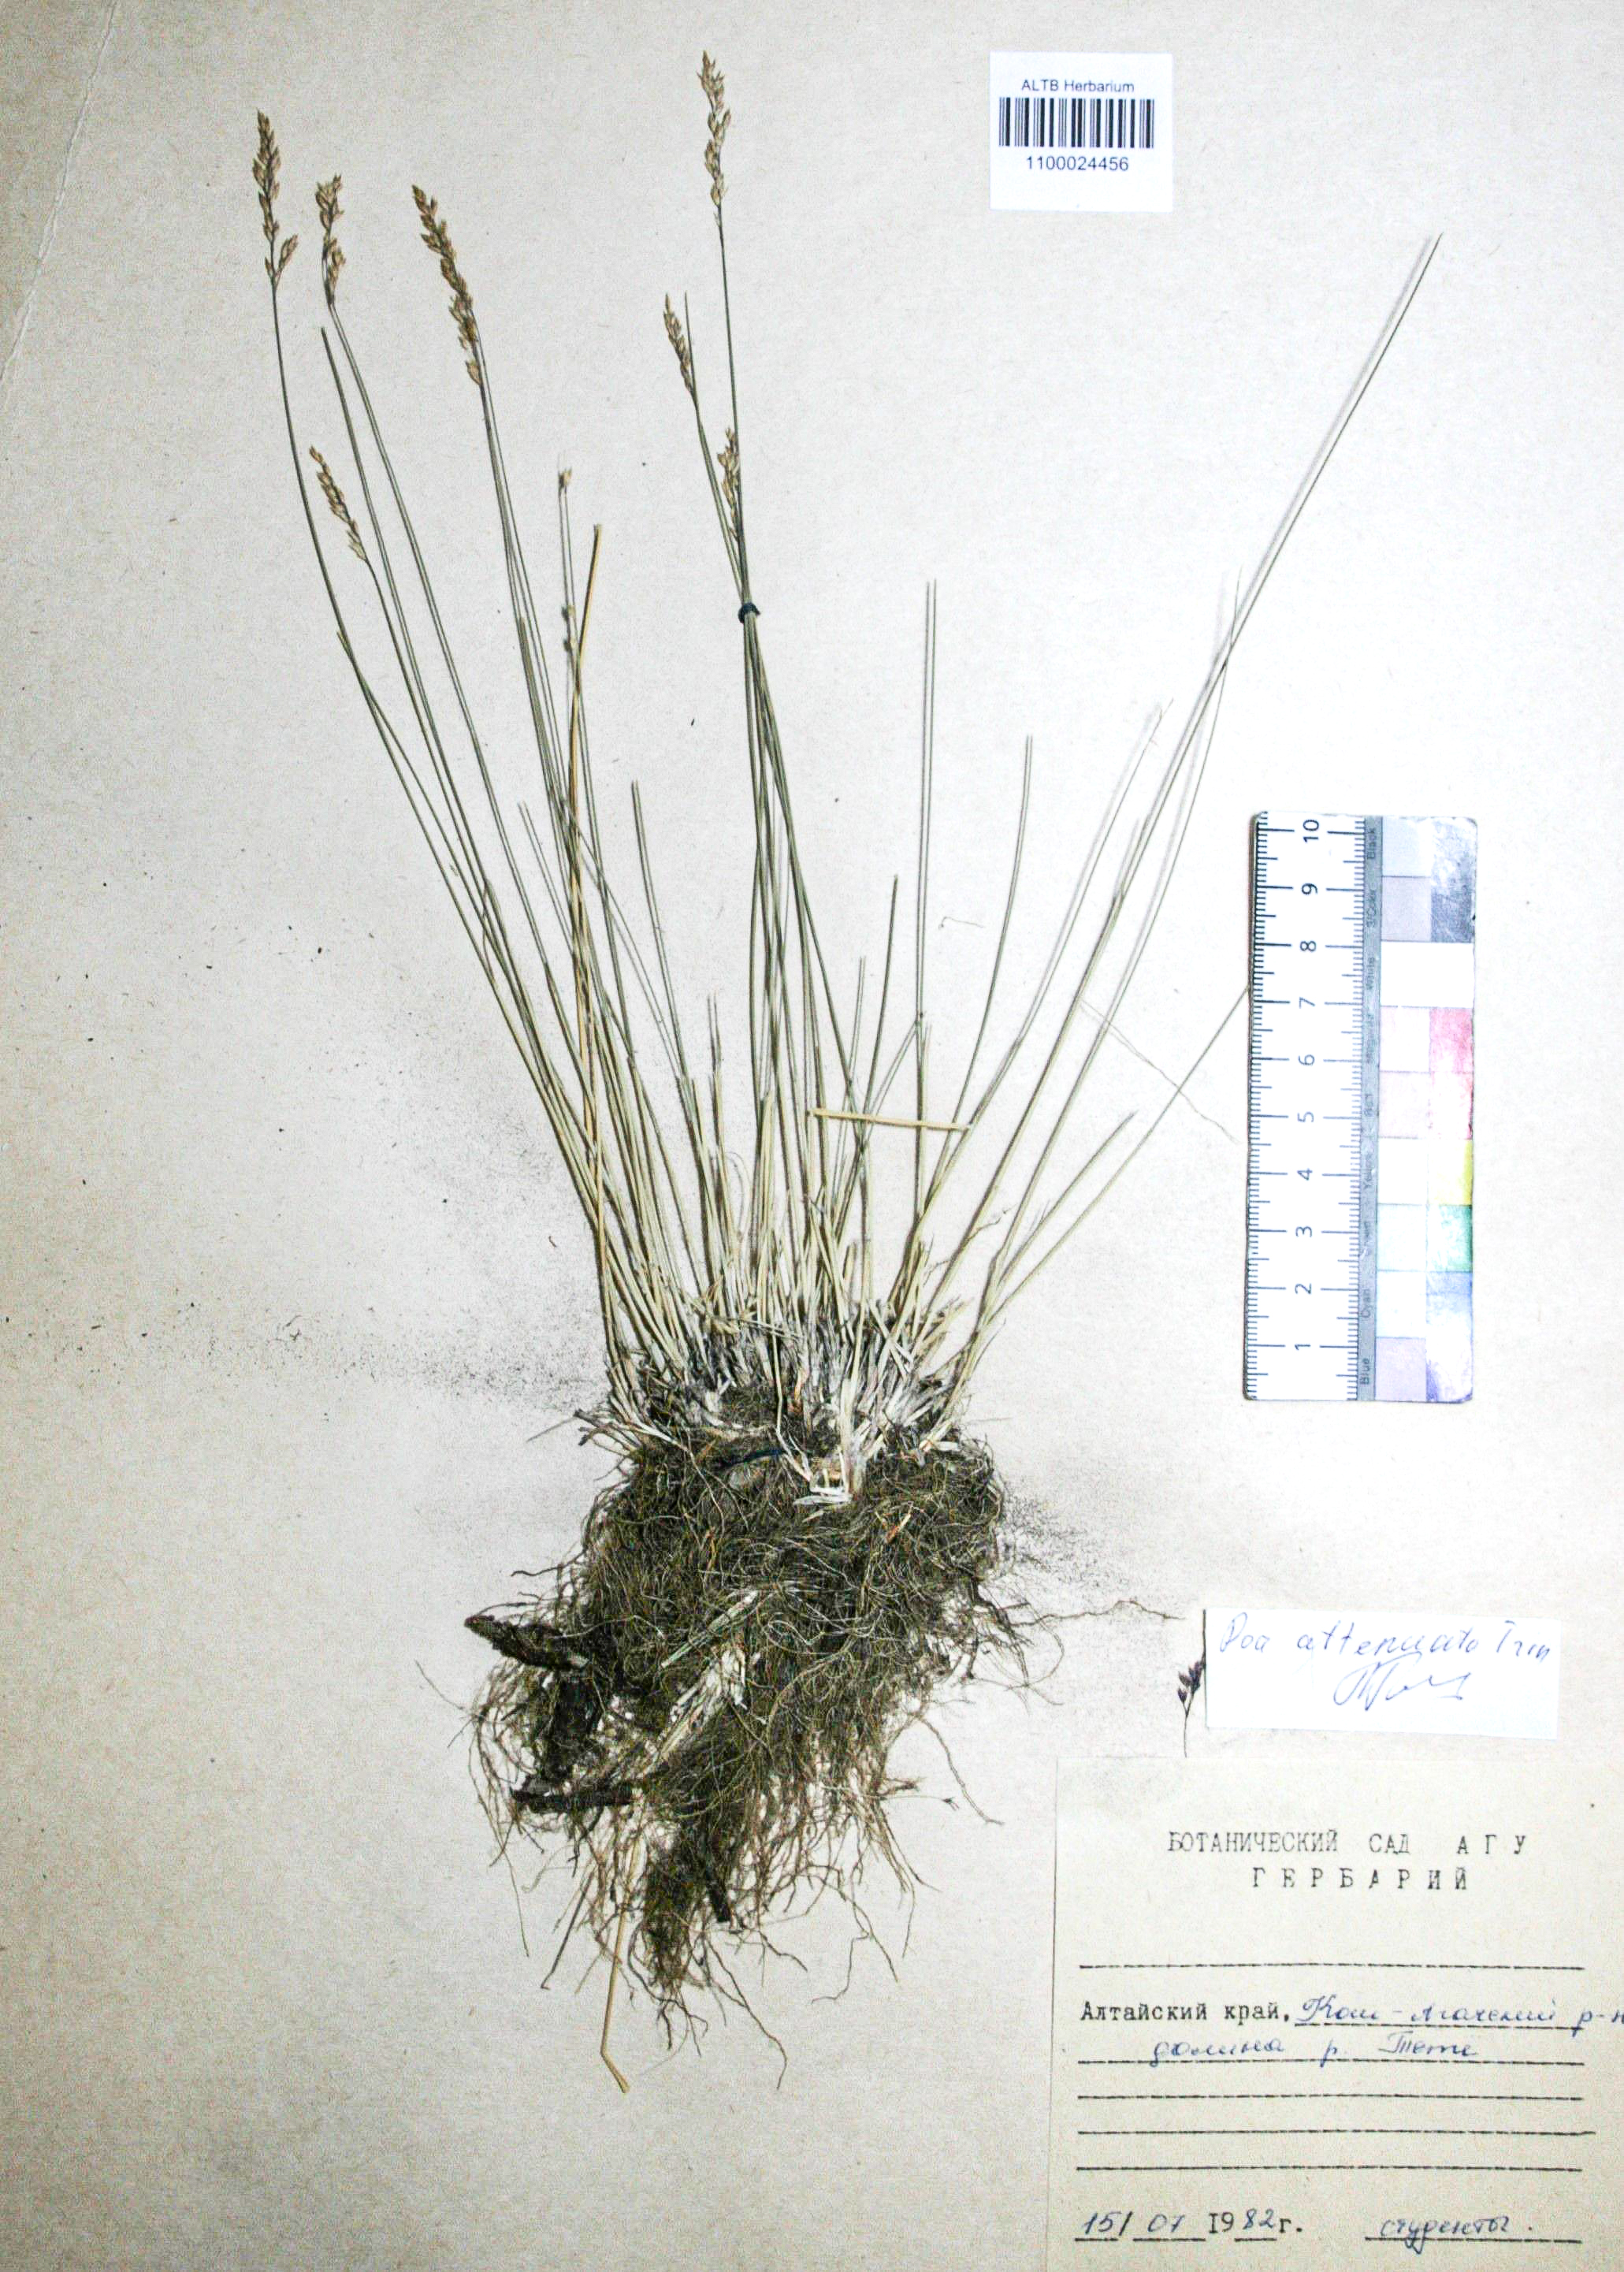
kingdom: Plantae
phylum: Tracheophyta
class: Liliopsida
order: Poales
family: Poaceae
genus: Poa
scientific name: Poa attenuata
